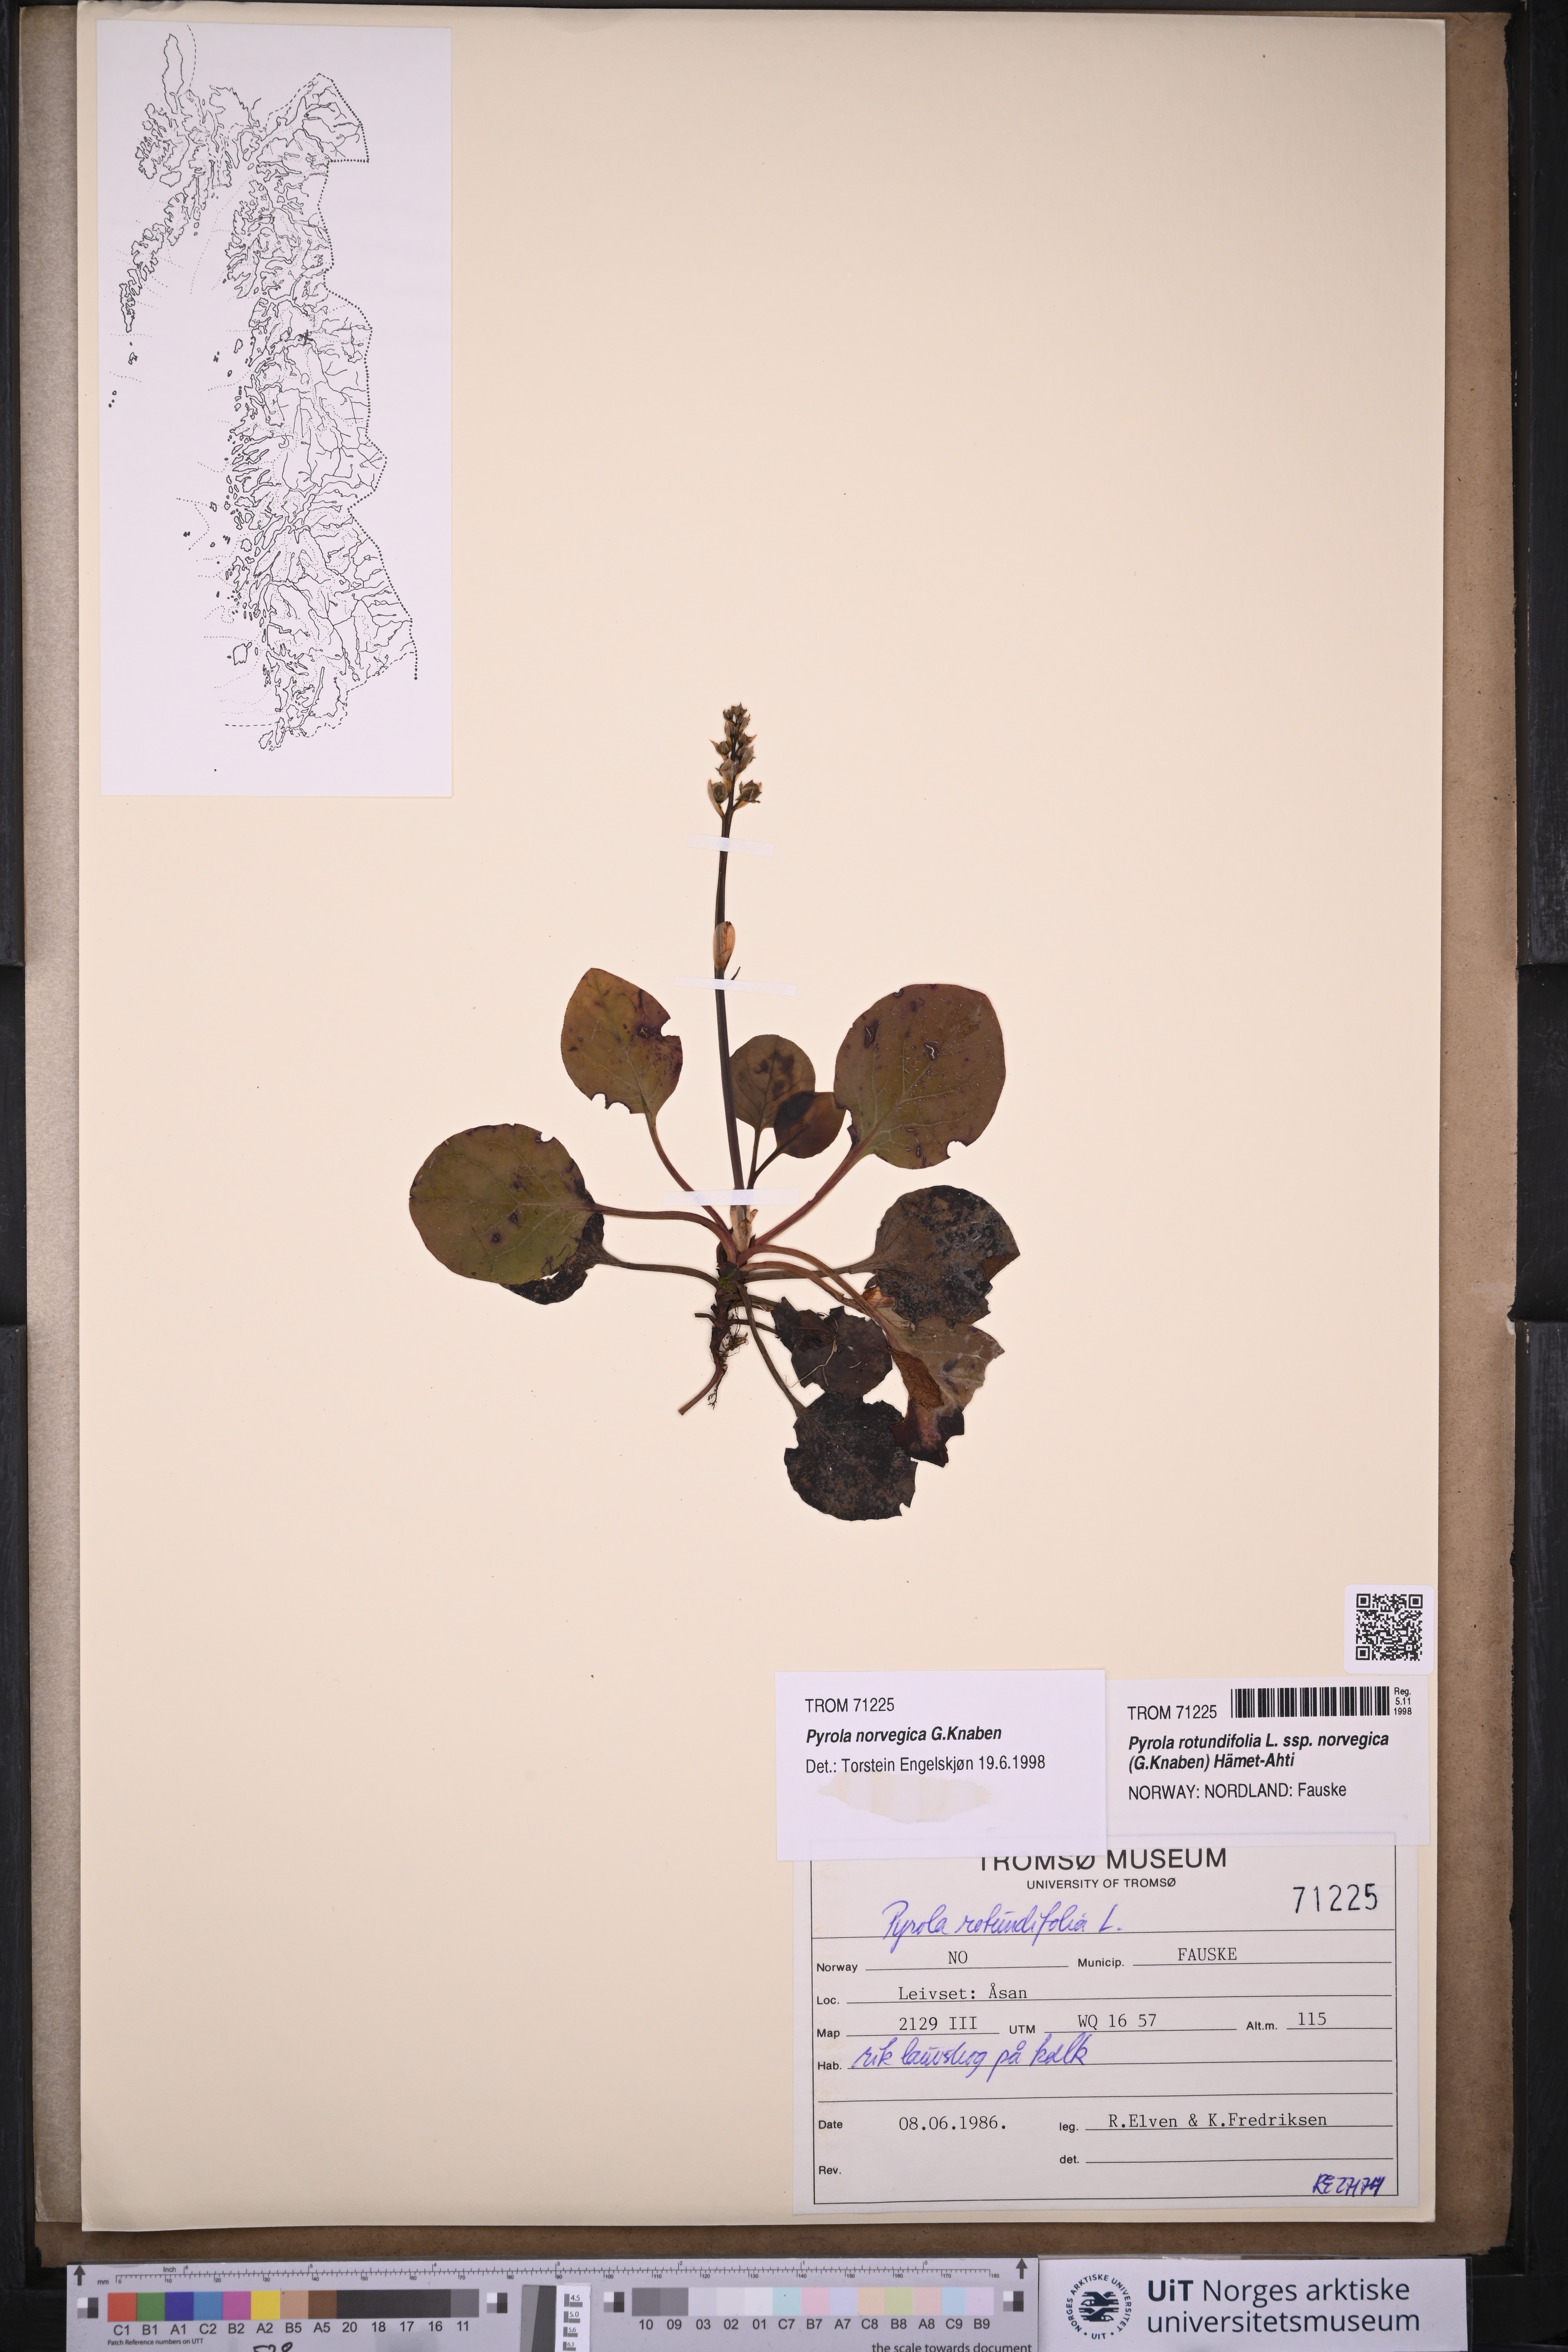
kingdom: Plantae
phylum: Tracheophyta
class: Magnoliopsida
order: Ericales
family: Ericaceae
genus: Pyrola
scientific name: Pyrola rotundifolia
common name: Round-leaved wintergreen
